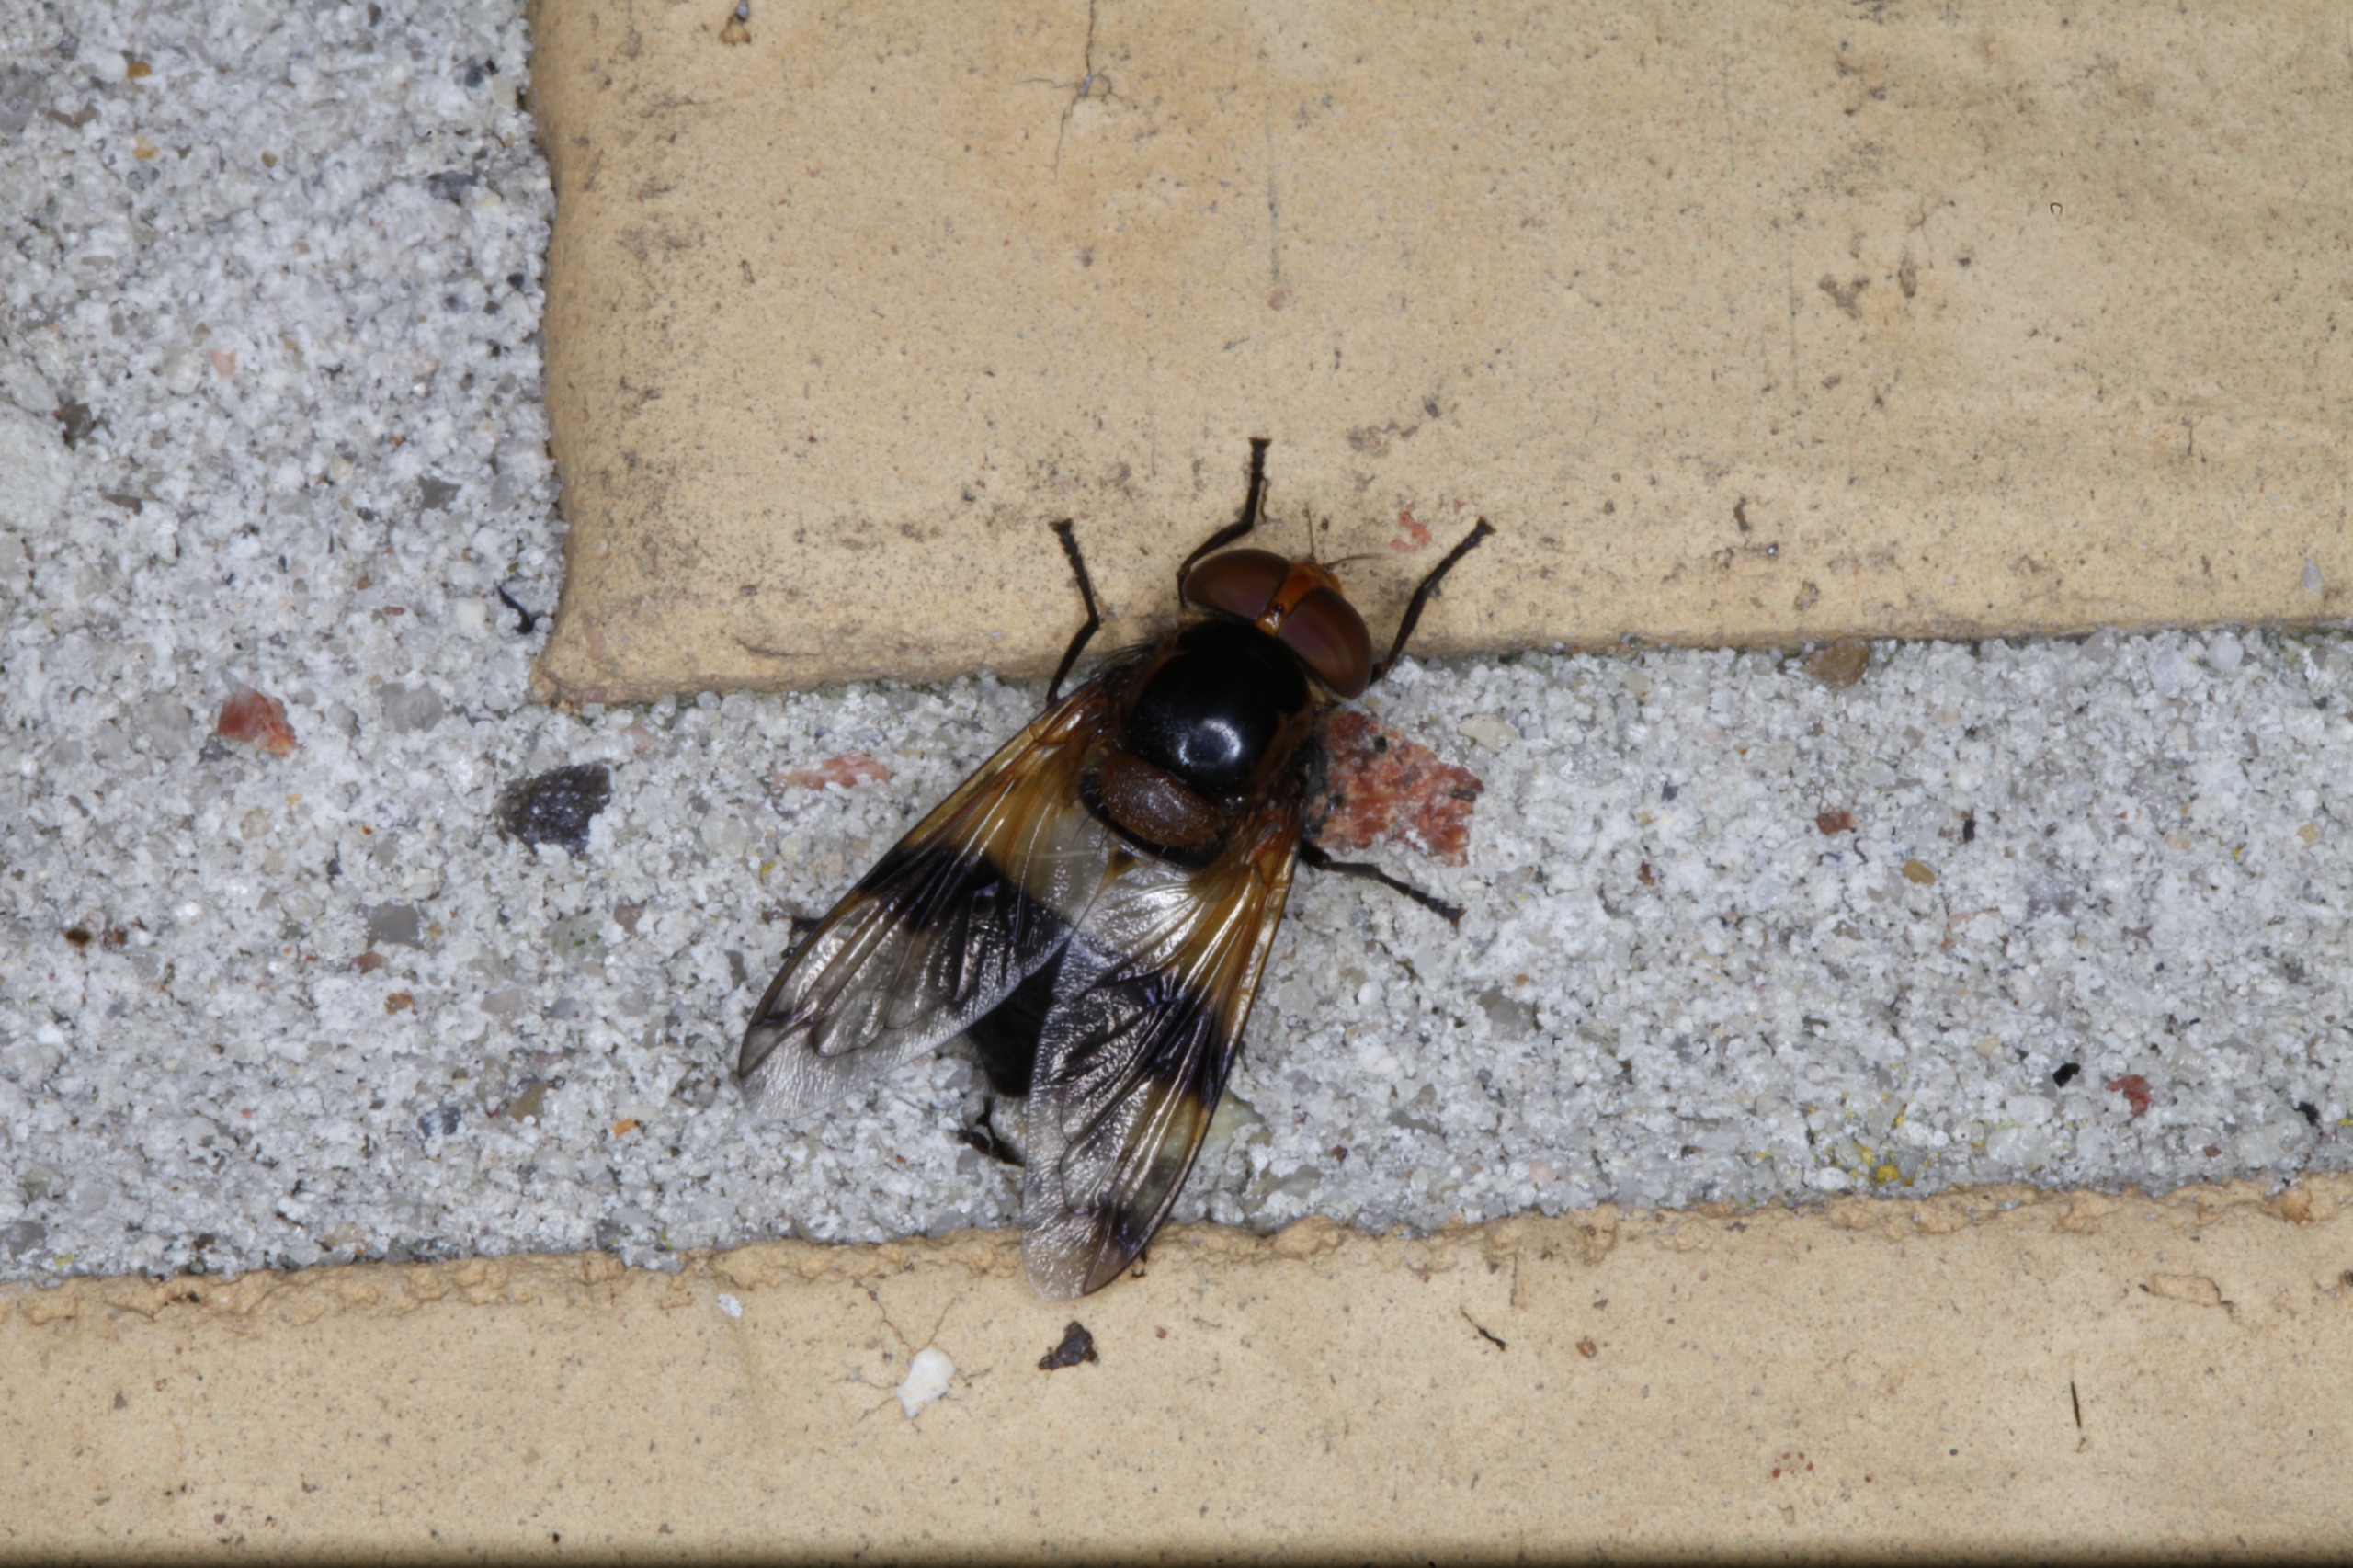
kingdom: Animalia
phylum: Arthropoda
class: Insecta
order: Diptera
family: Syrphidae
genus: Volucella
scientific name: Volucella pellucens
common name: Hvidbåndet humlesvirreflue
